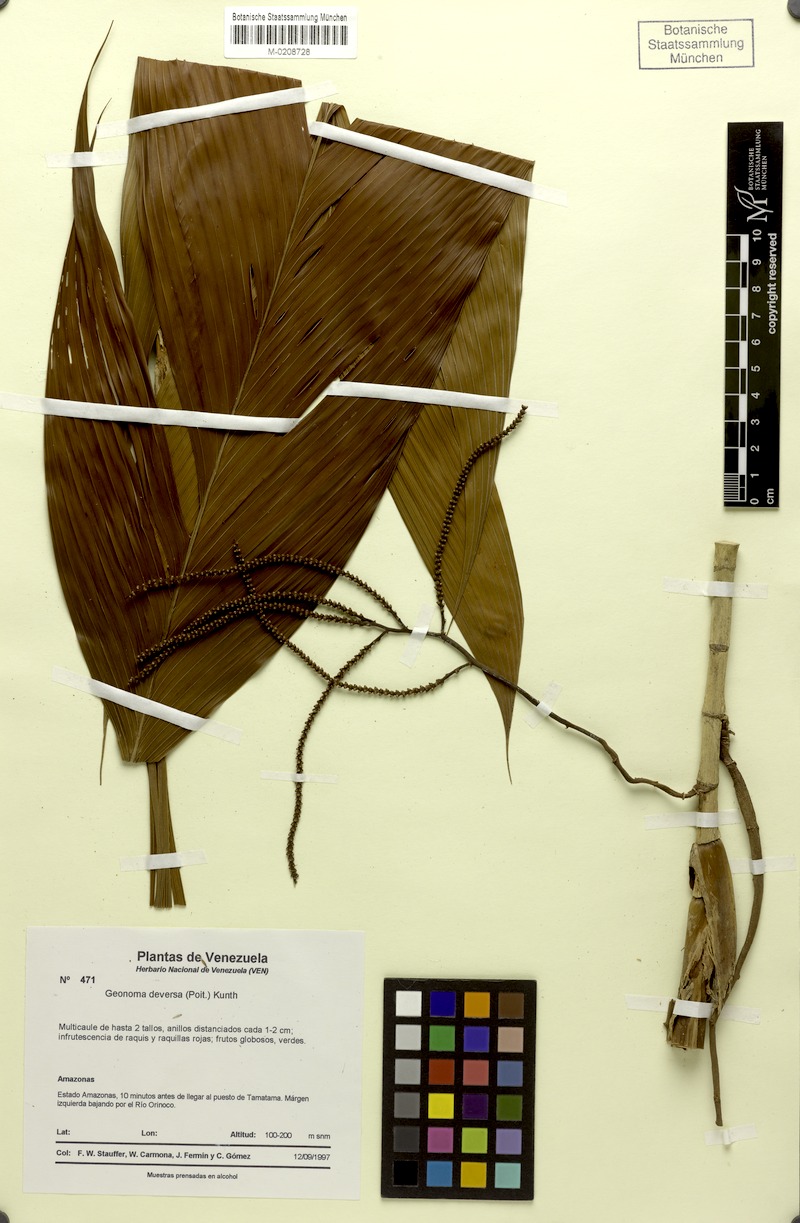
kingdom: Plantae
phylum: Tracheophyta
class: Liliopsida
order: Arecales
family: Arecaceae
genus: Geonoma
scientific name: Geonoma deversa
